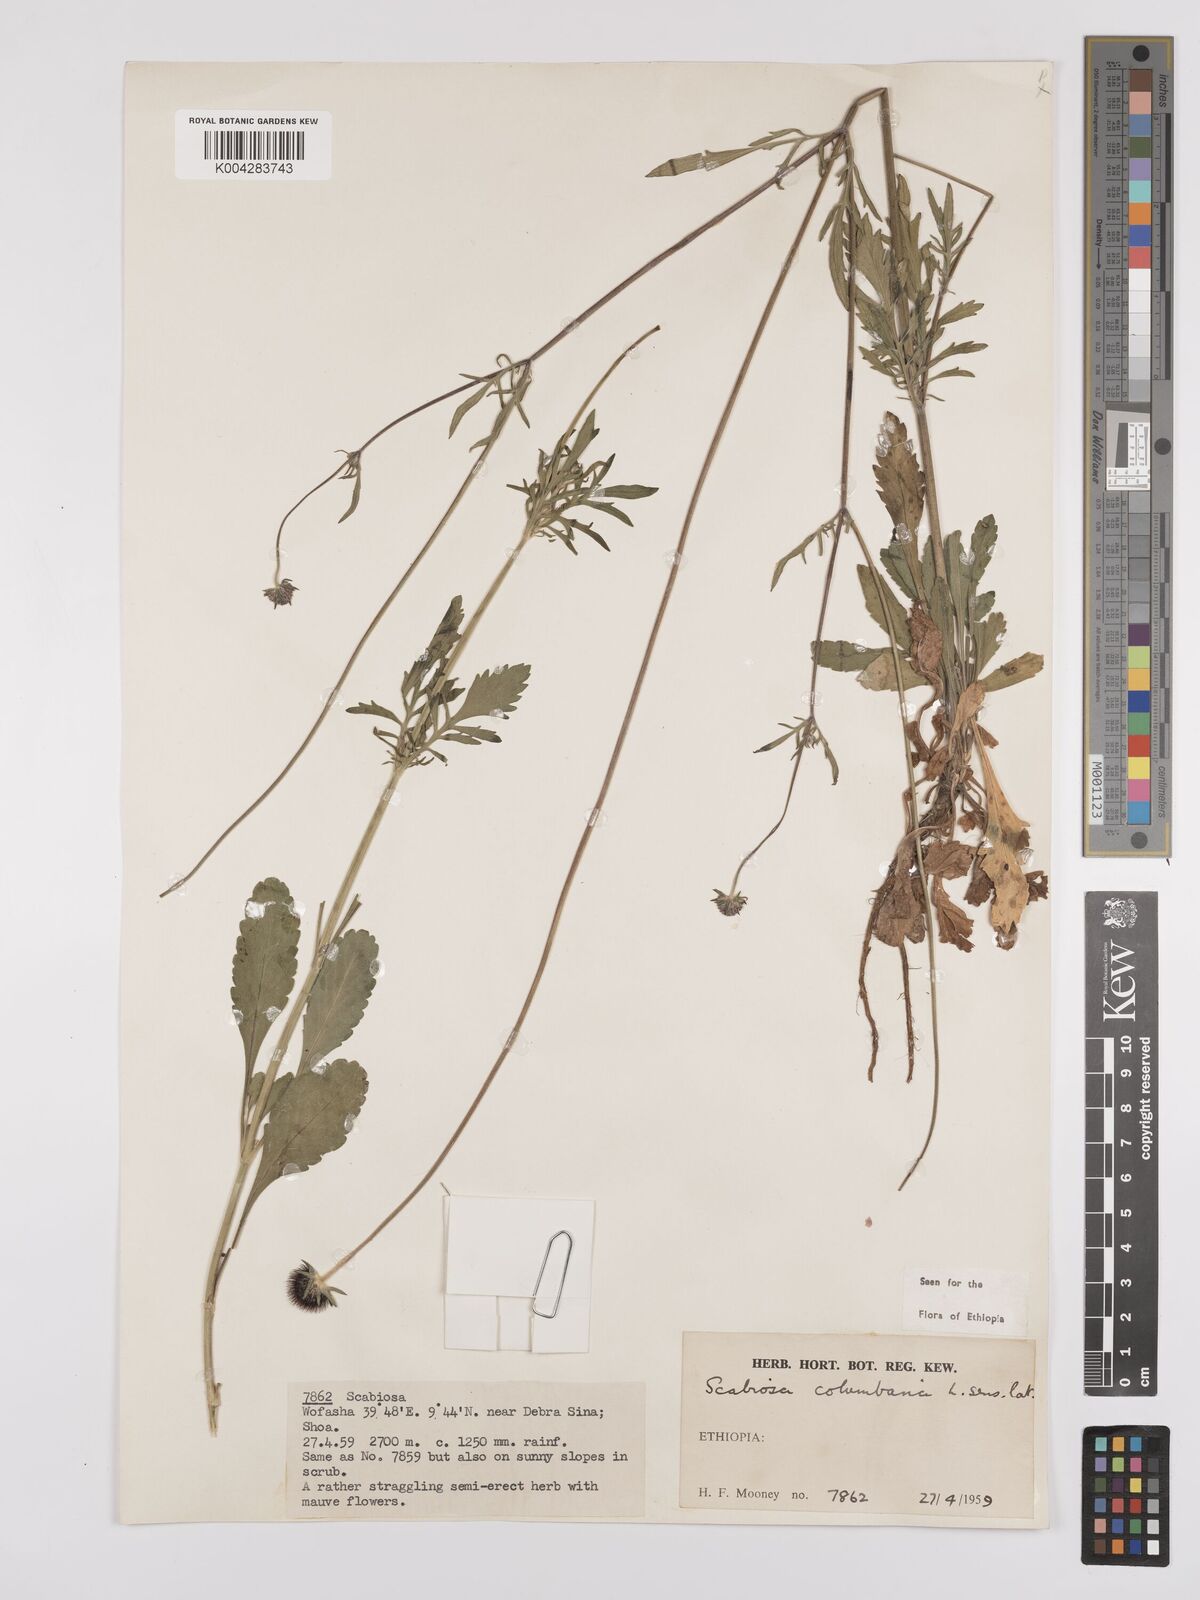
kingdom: Plantae
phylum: Tracheophyta
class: Magnoliopsida
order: Dipsacales
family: Caprifoliaceae
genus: Scabiosa
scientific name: Scabiosa columbaria
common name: Small scabious
